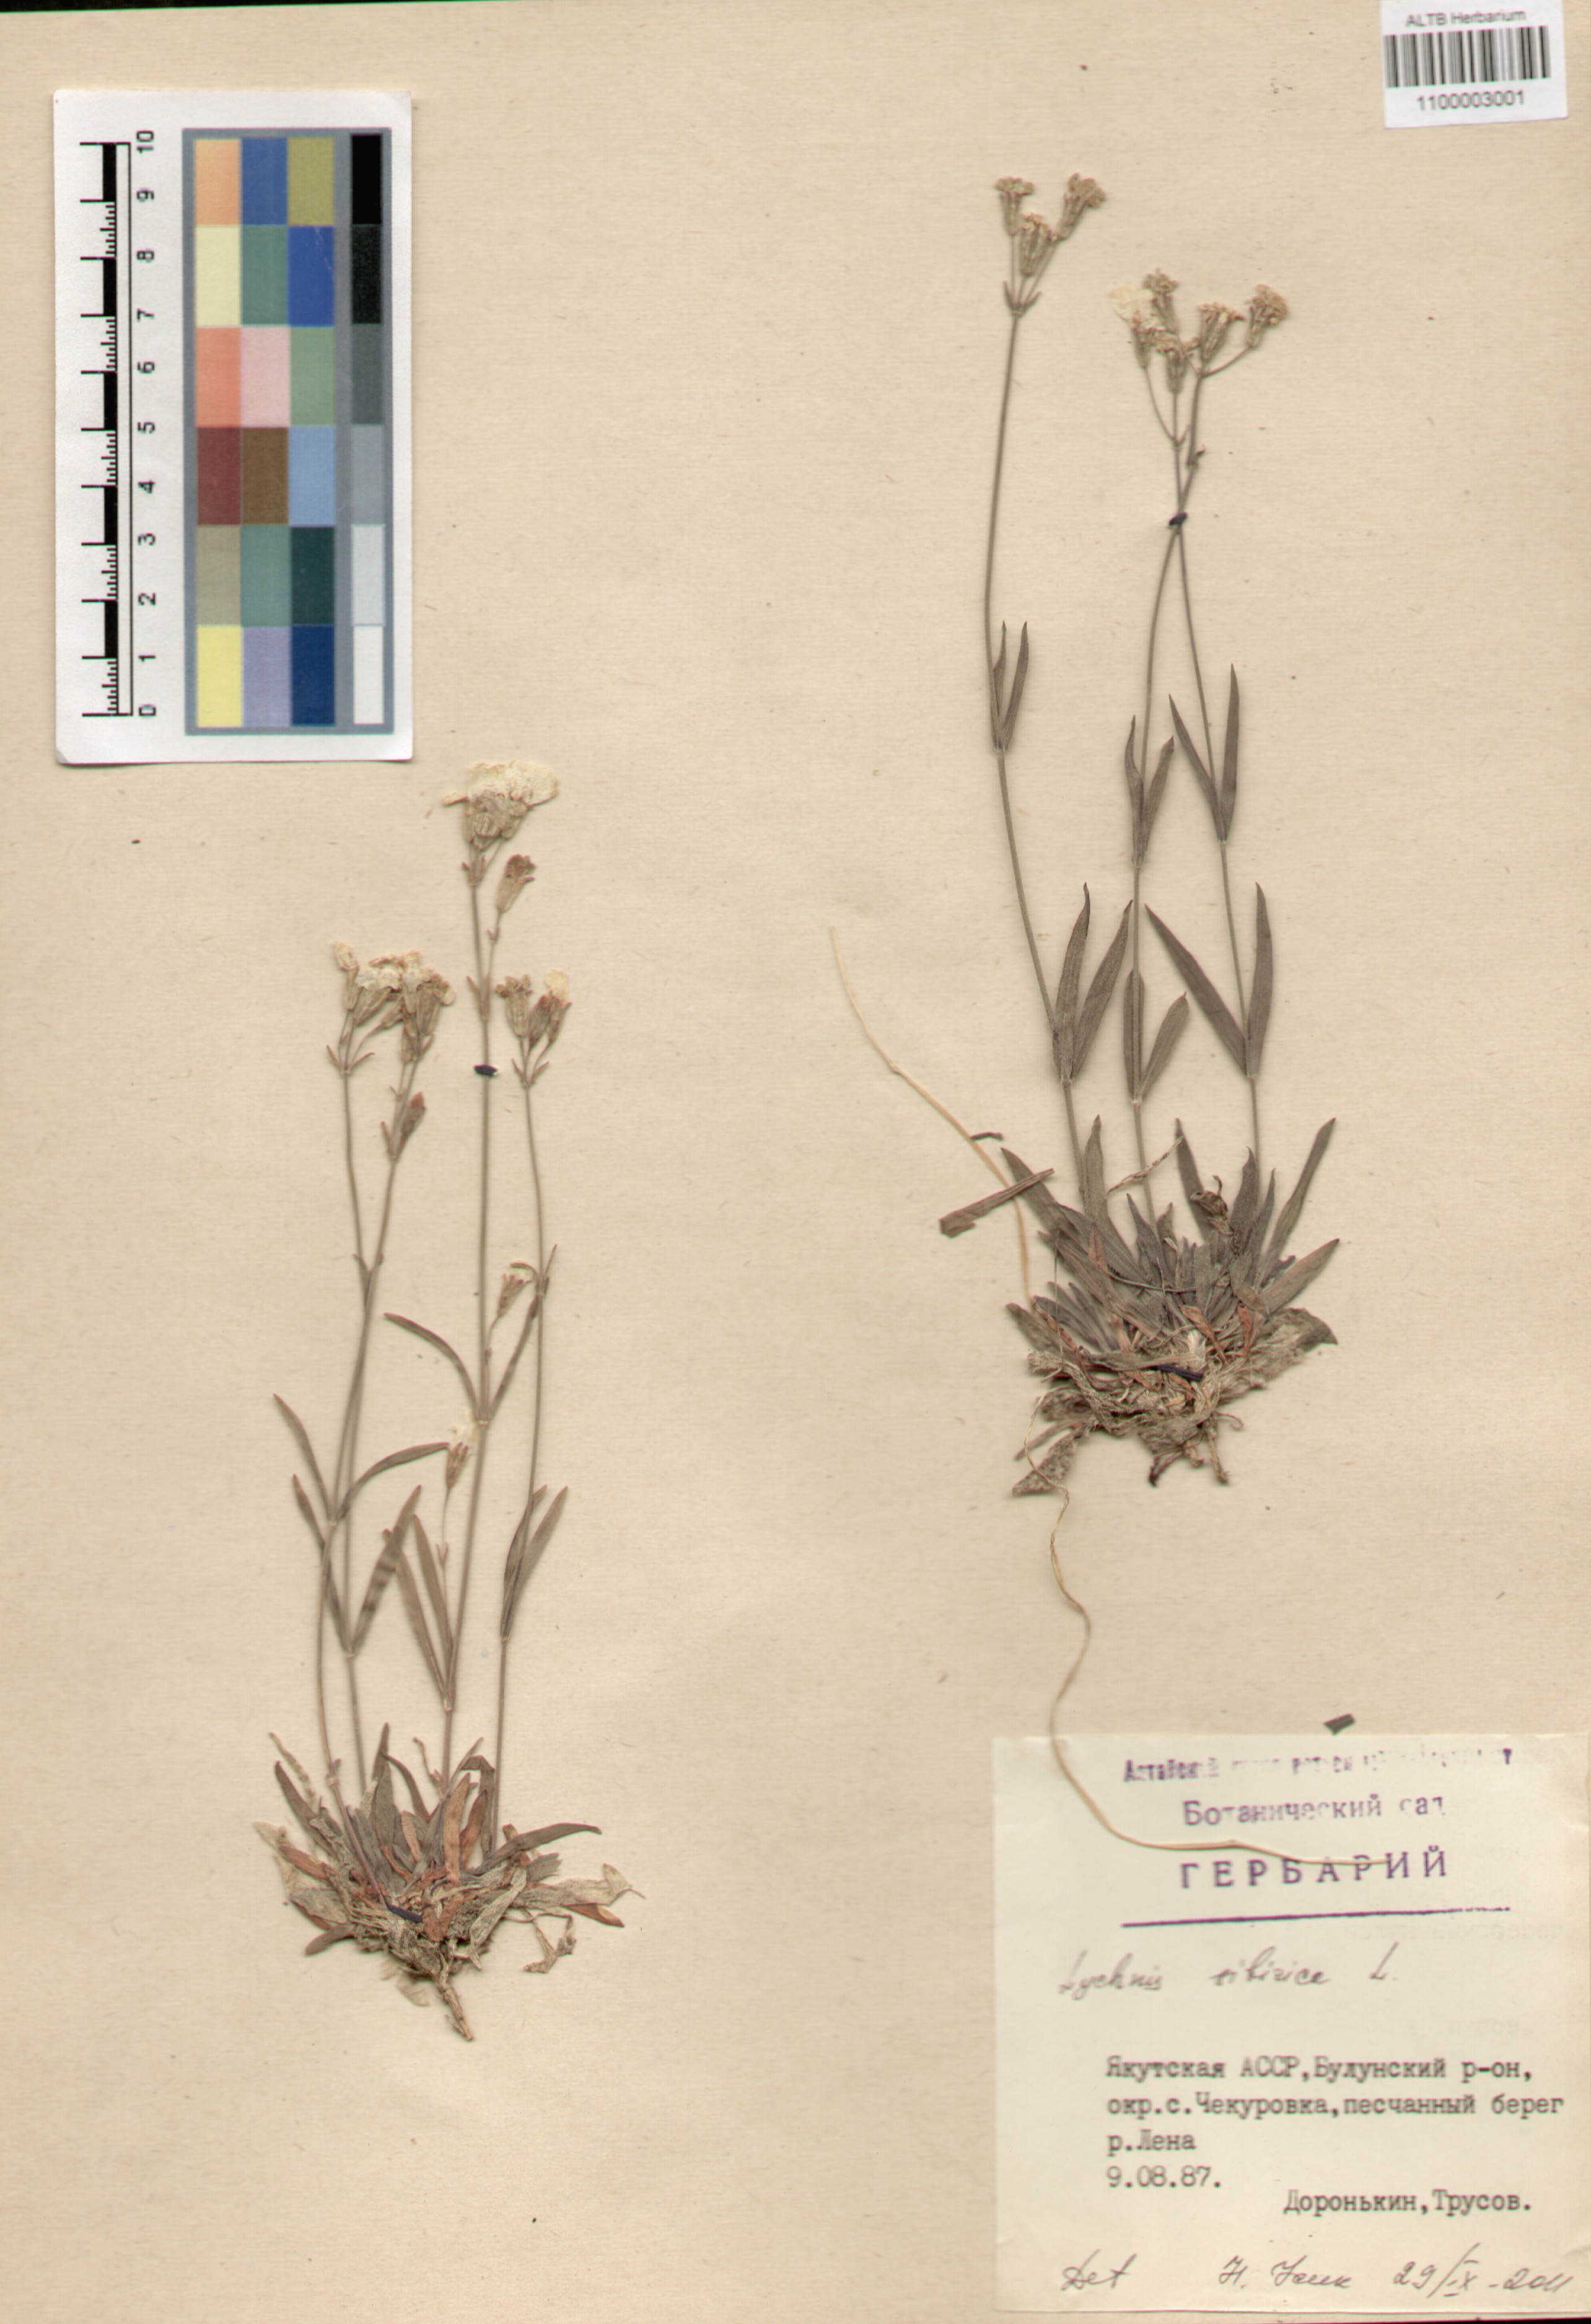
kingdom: Plantae
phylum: Tracheophyta
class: Magnoliopsida
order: Caryophyllales
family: Caryophyllaceae
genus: Silene
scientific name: Silene orientalimongolica
